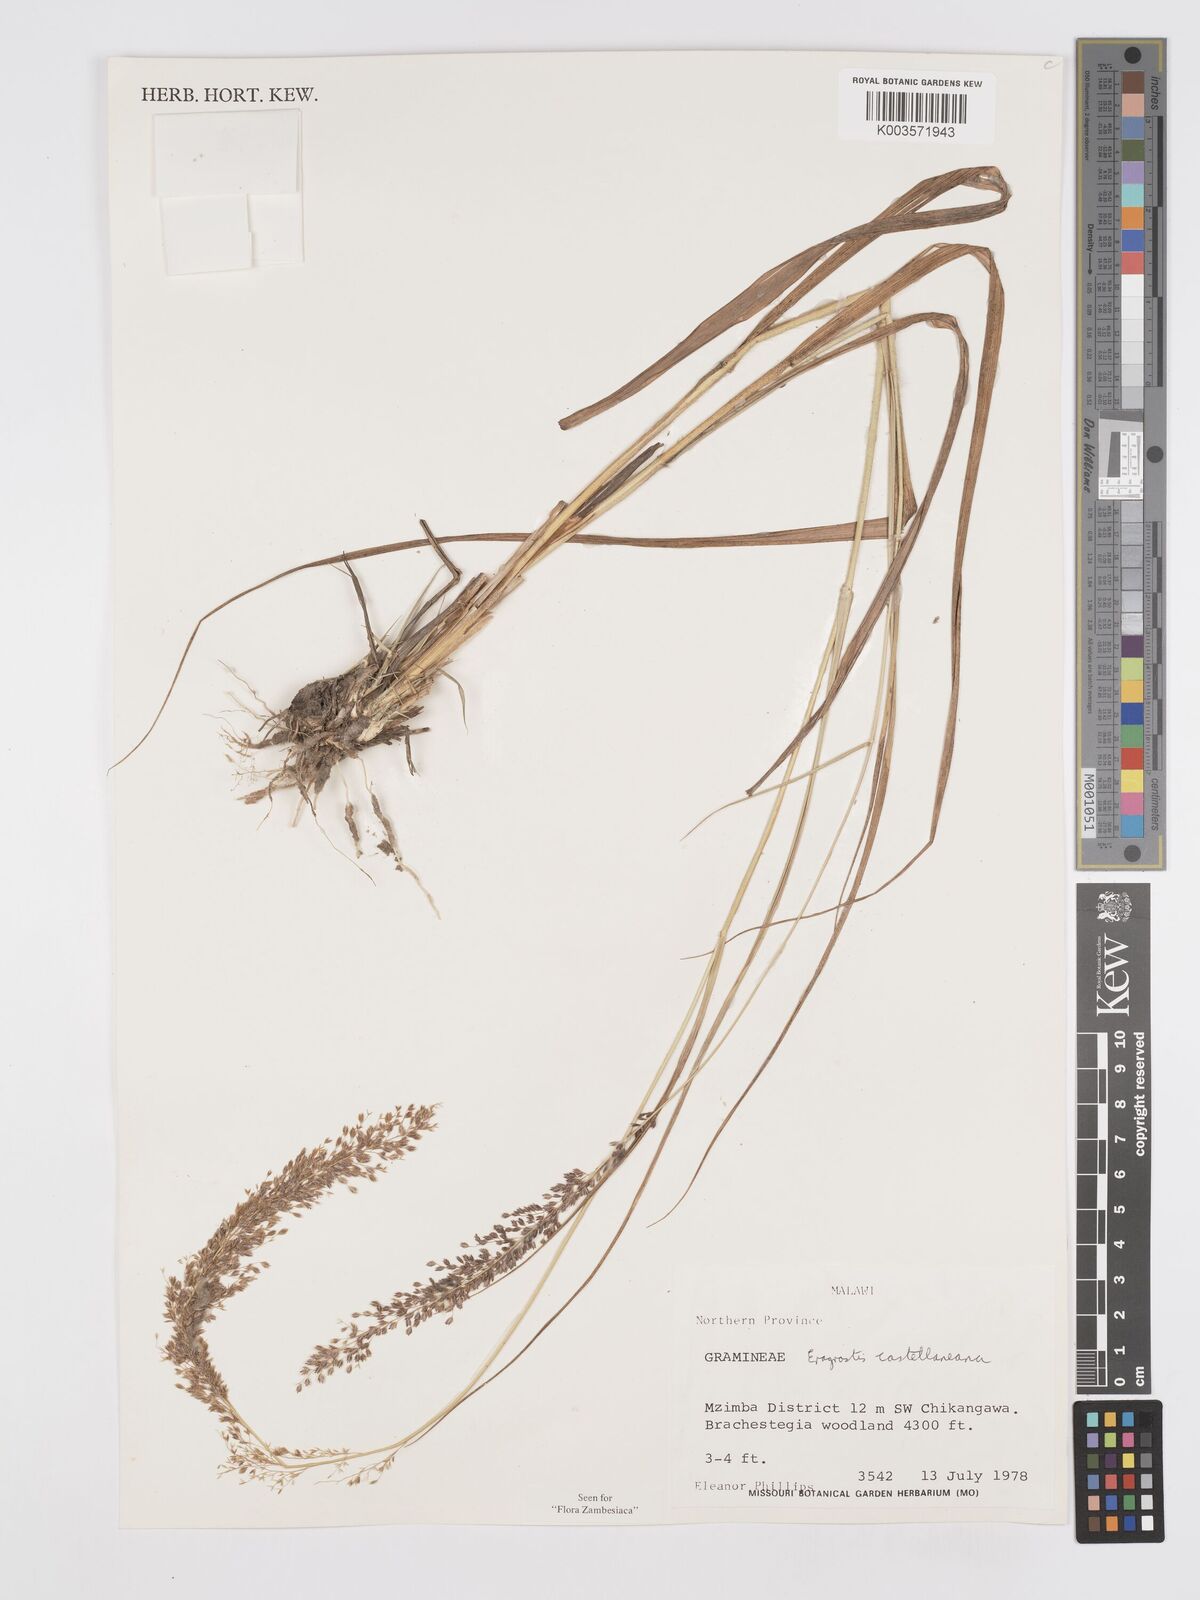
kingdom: Plantae
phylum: Tracheophyta
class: Liliopsida
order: Poales
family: Poaceae
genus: Eragrostis
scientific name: Eragrostis castellaneana
